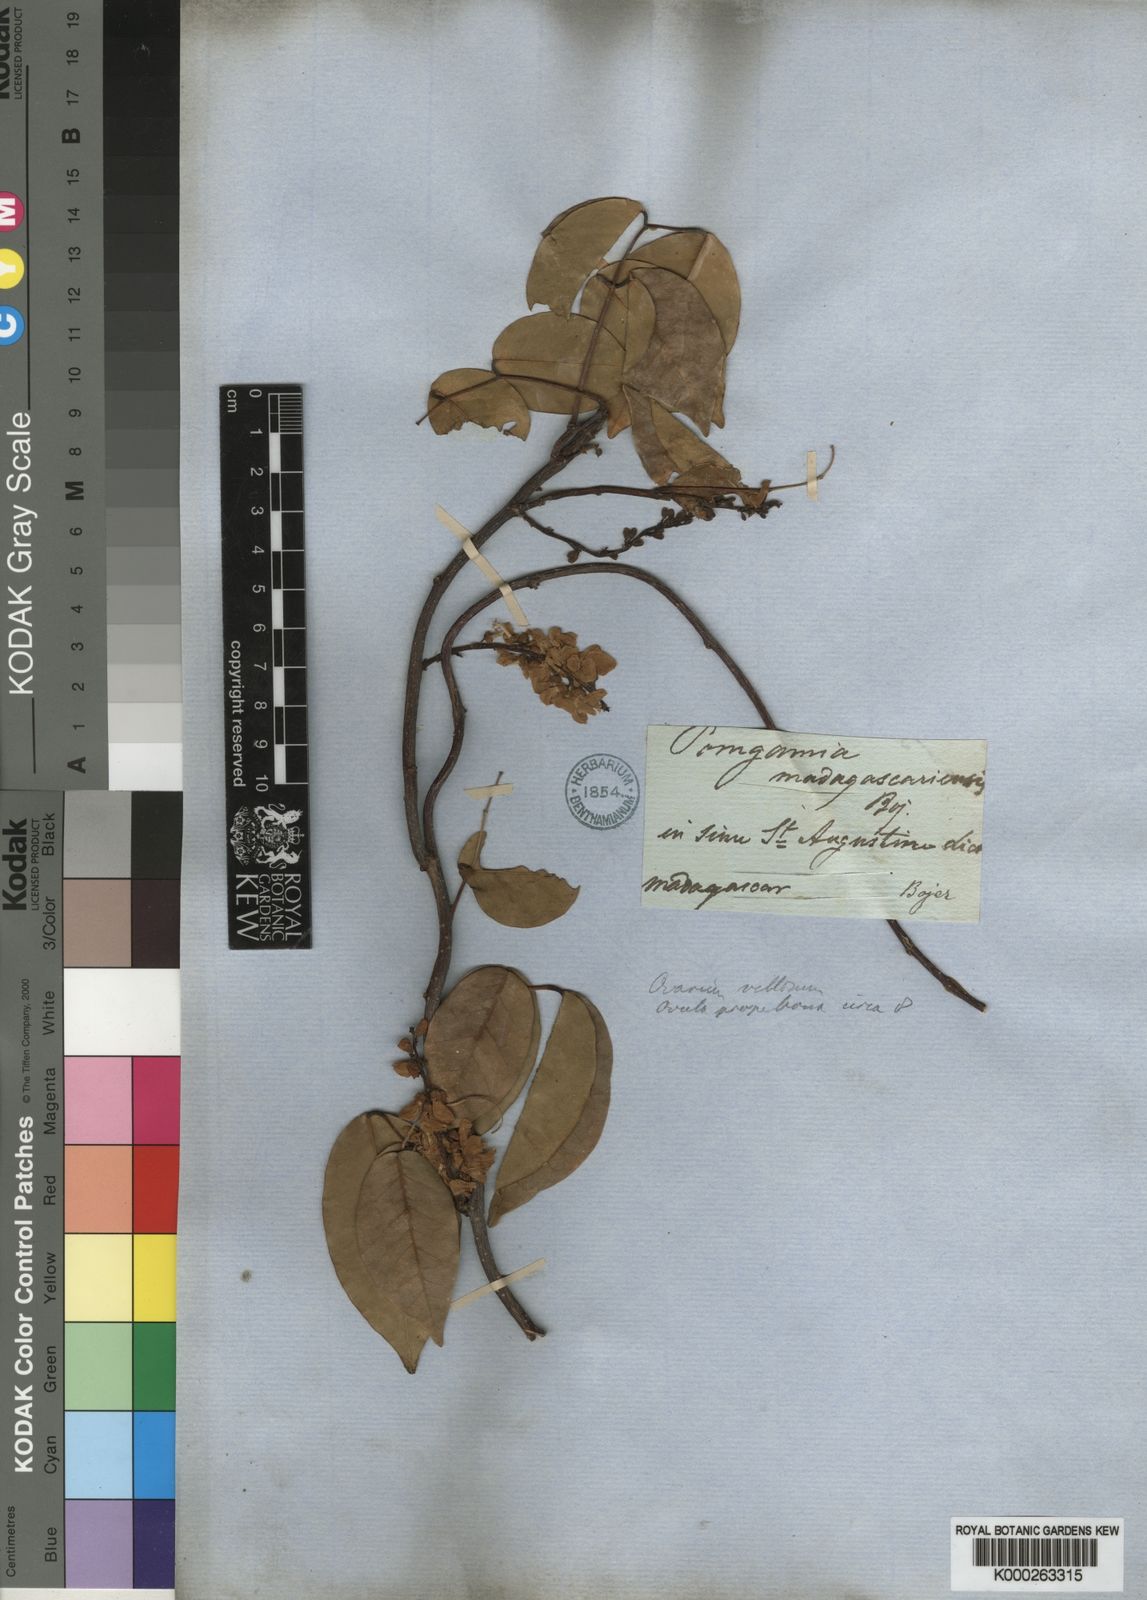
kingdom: Plantae
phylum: Tracheophyta
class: Magnoliopsida
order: Fabales
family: Fabaceae
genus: Derris
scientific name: Derris trifoliata
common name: Three-leaf derris
